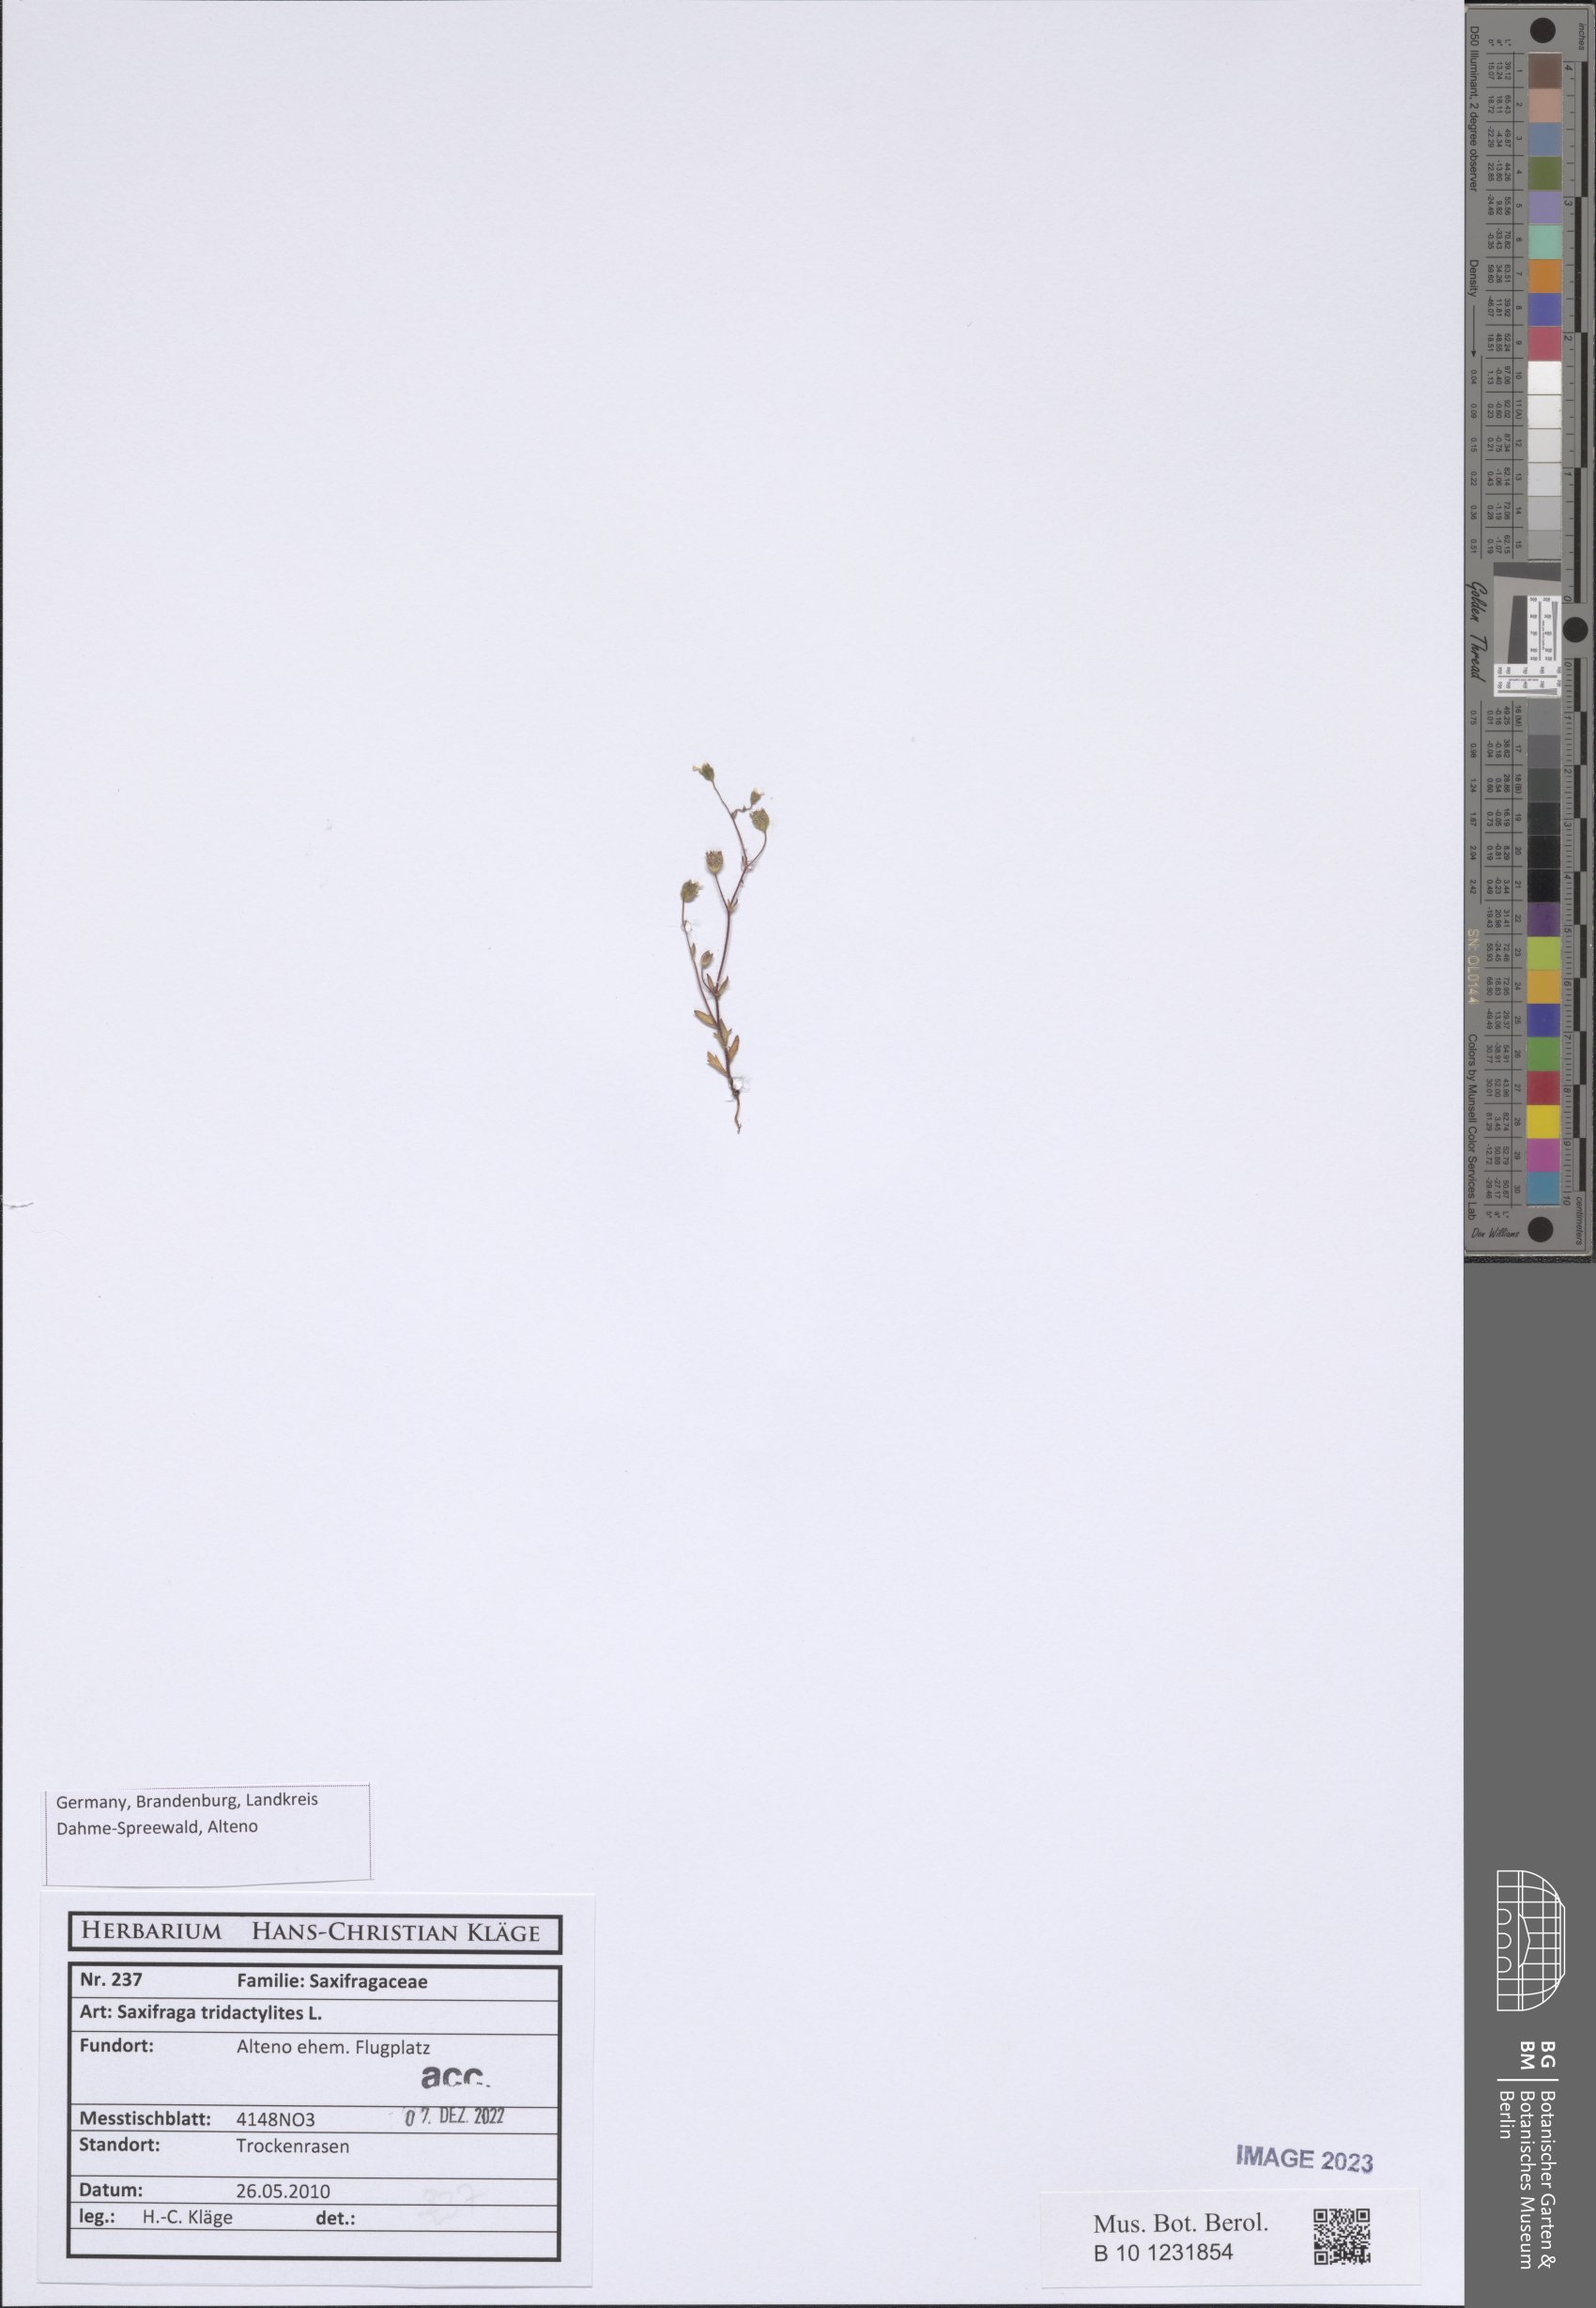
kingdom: Plantae
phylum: Tracheophyta
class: Magnoliopsida
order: Saxifragales
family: Saxifragaceae
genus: Saxifraga
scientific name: Saxifraga tridactylites
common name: Rue-leaved saxifrage
